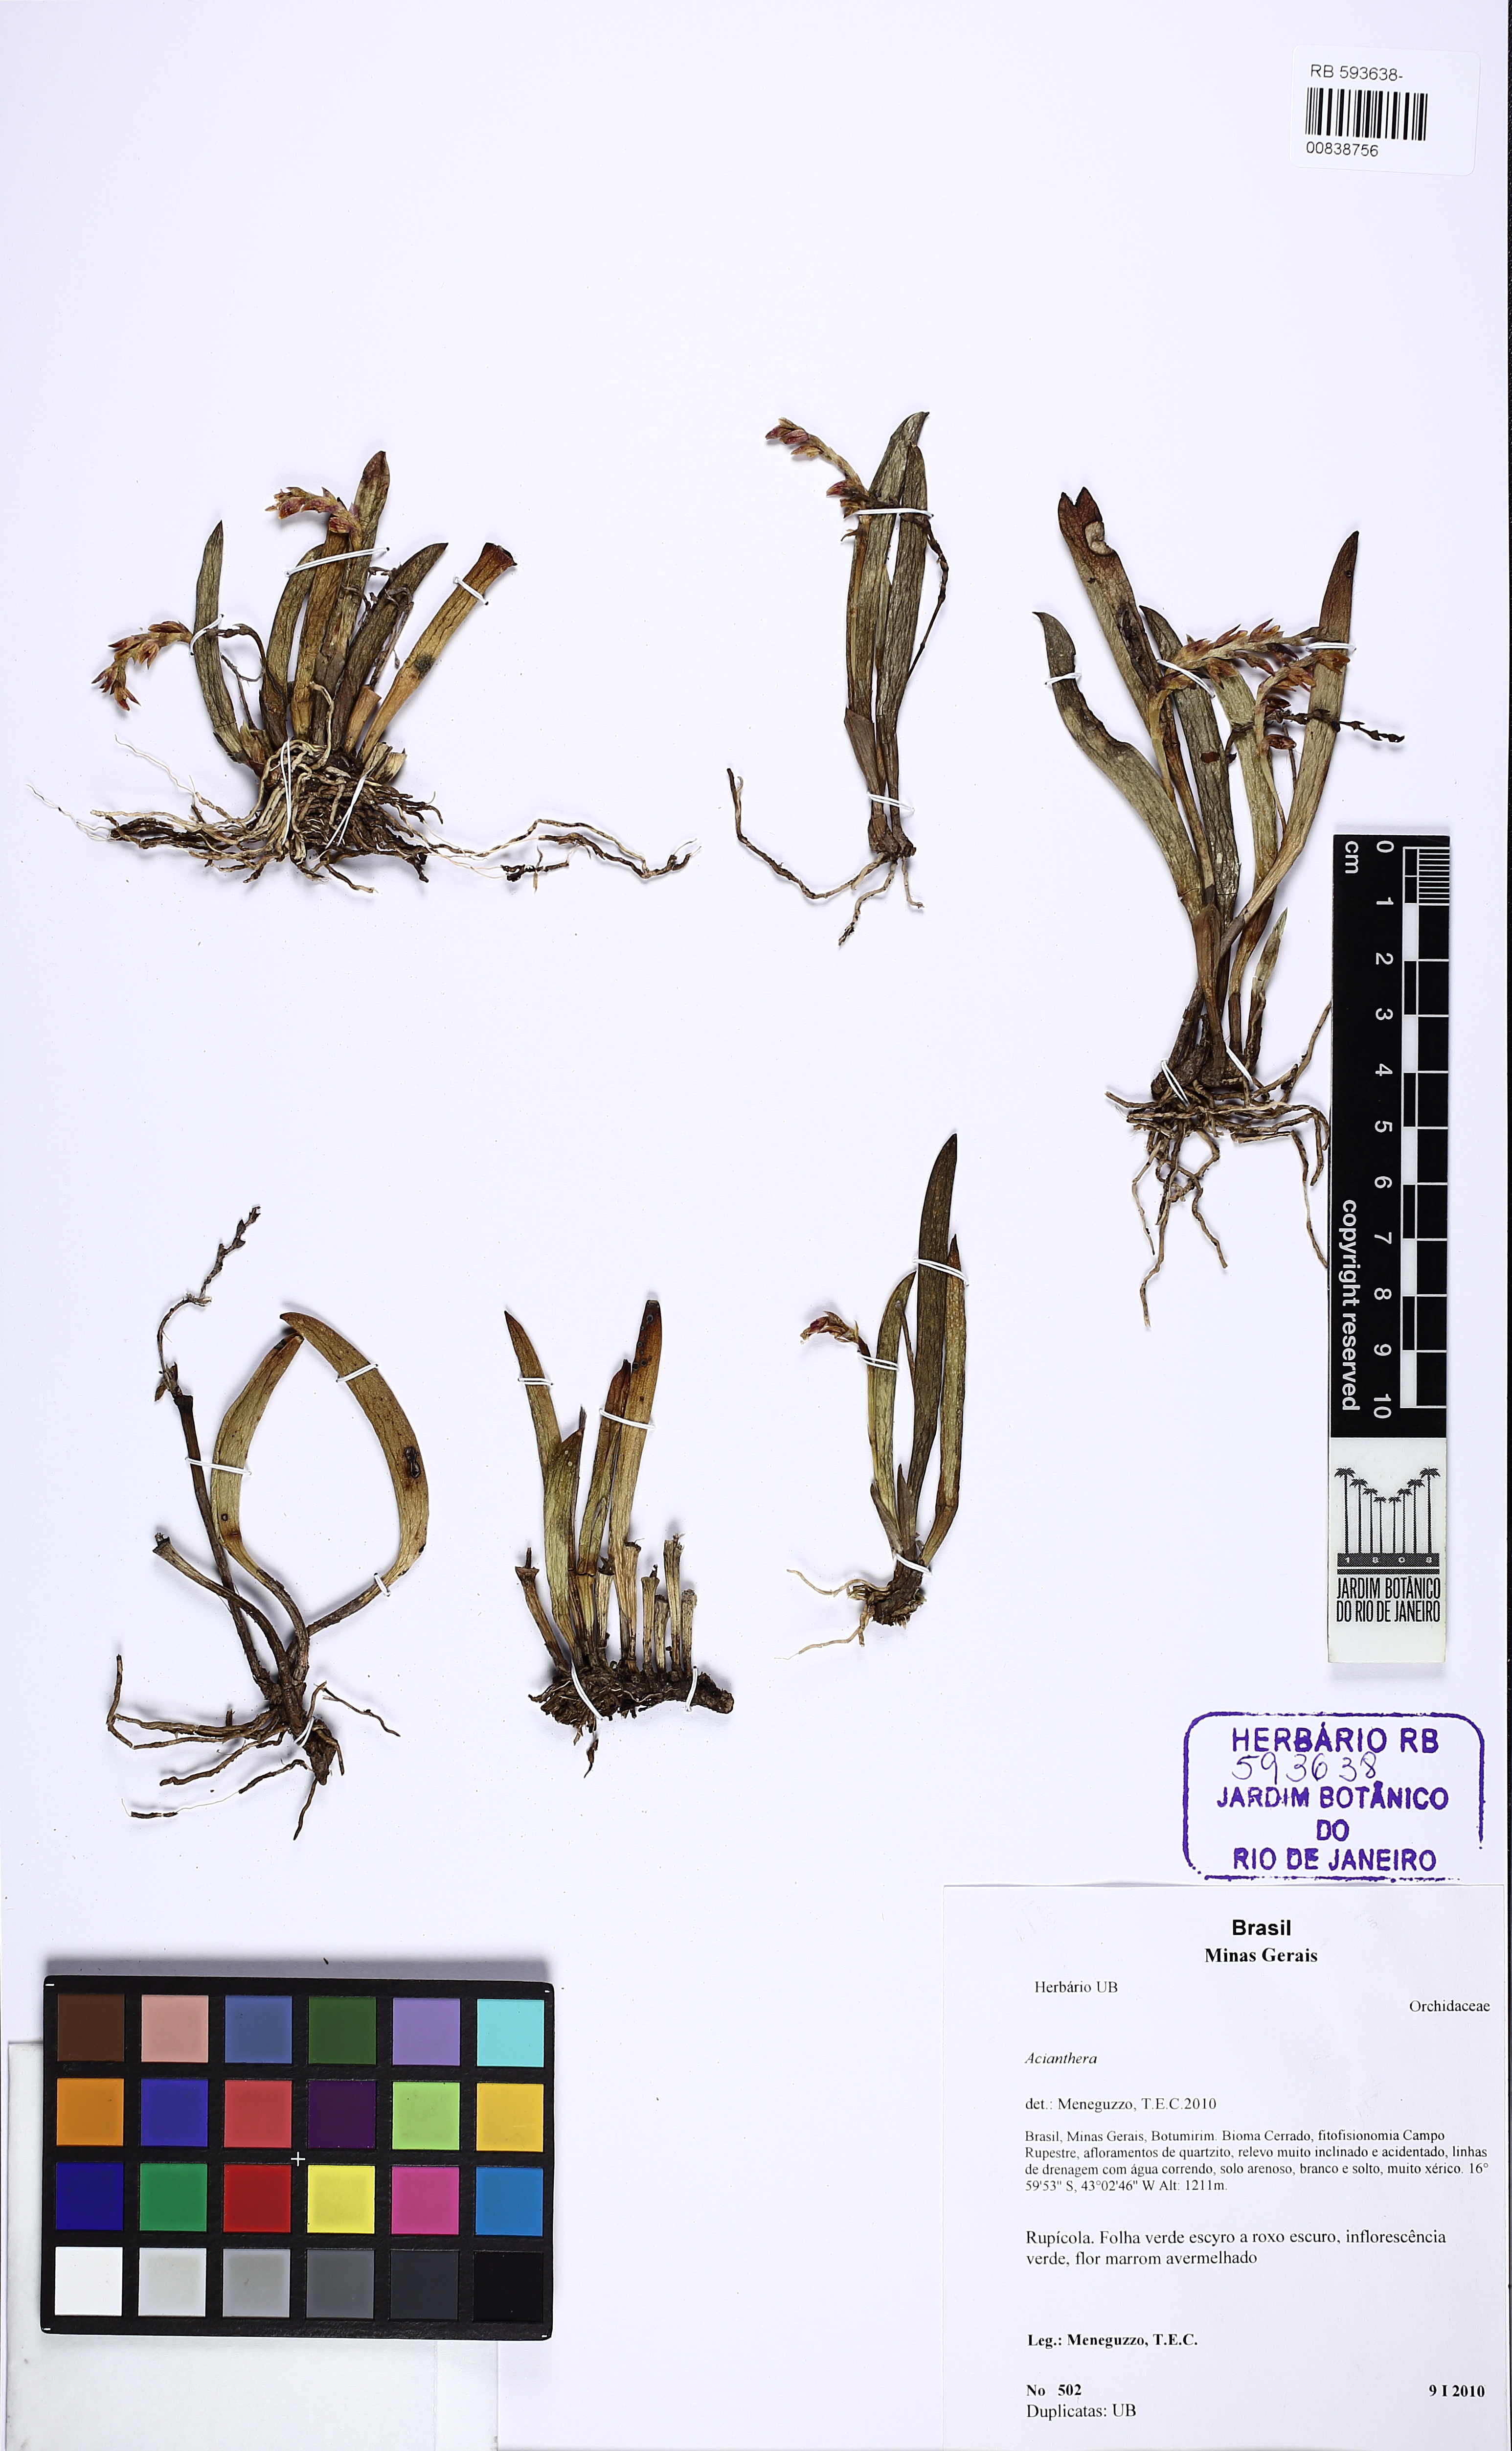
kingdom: Plantae
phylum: Tracheophyta
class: Liliopsida
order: Asparagales
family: Orchidaceae
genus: Acianthera
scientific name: Acianthera ochreata
